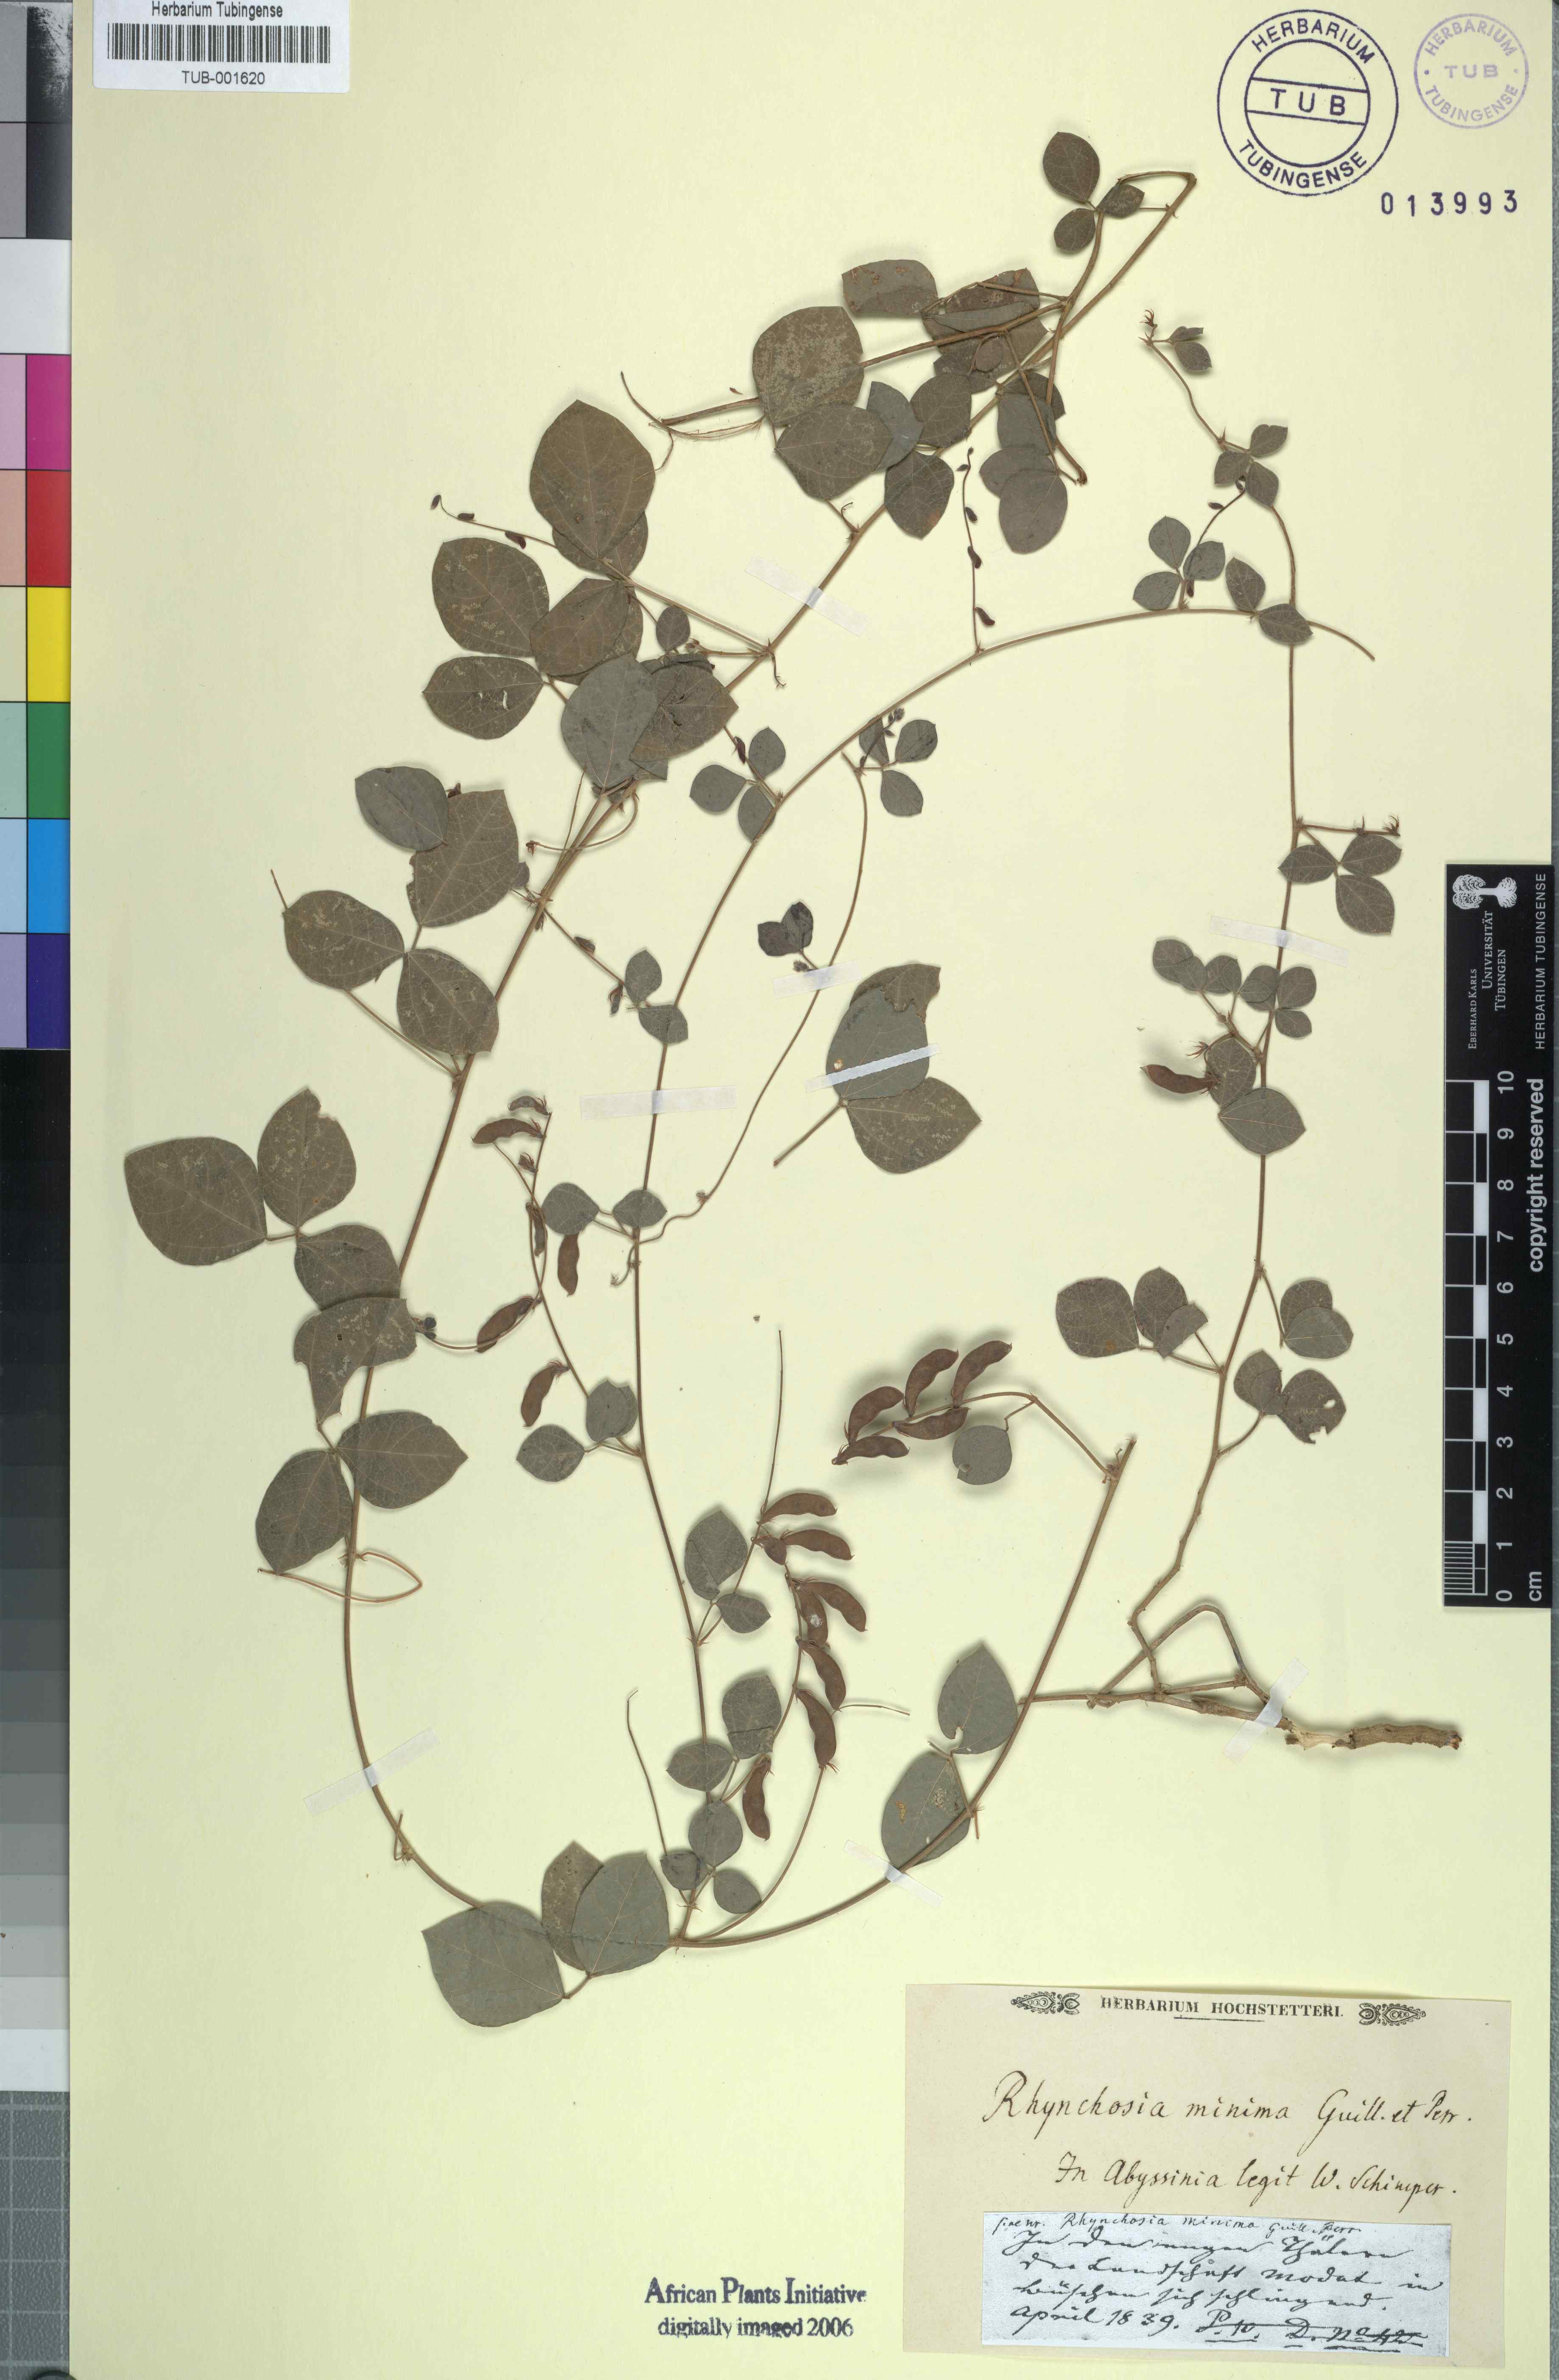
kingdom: Plantae
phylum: Tracheophyta
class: Magnoliopsida
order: Fabales
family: Fabaceae
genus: Rhynchosia
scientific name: Rhynchosia minima
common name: Least snoutbean
